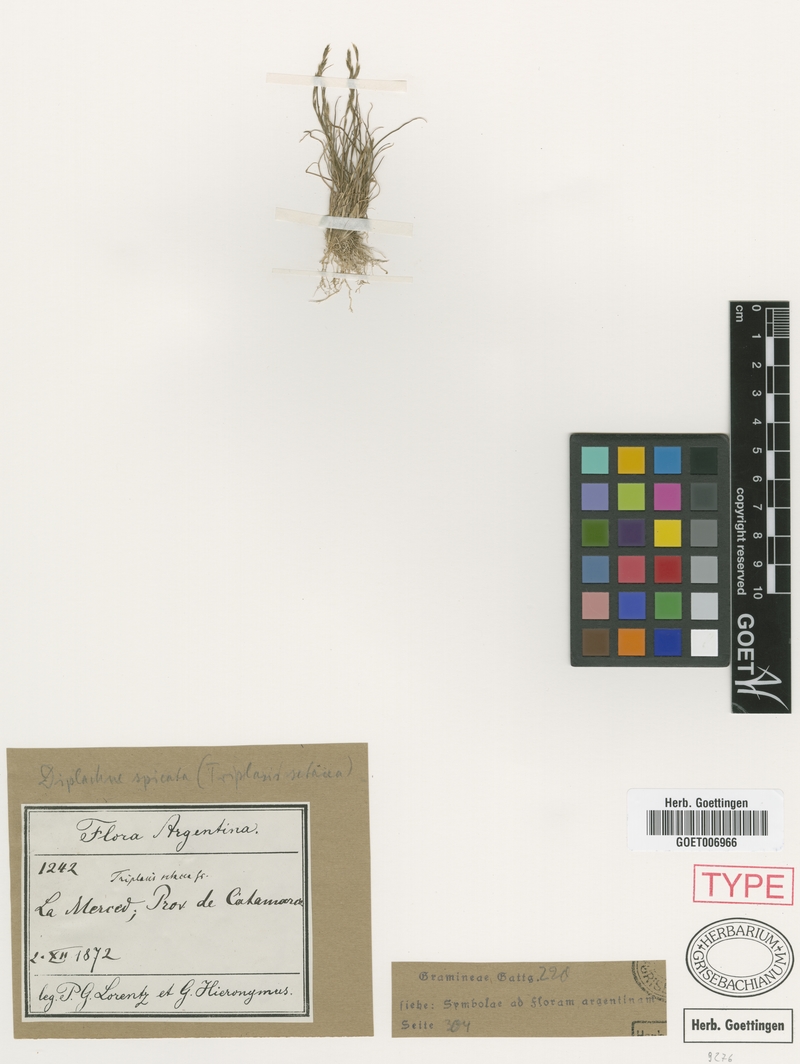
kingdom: Plantae
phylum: Tracheophyta
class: Liliopsida
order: Poales
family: Poaceae
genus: Tripogonella
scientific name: Tripogonella spicata
